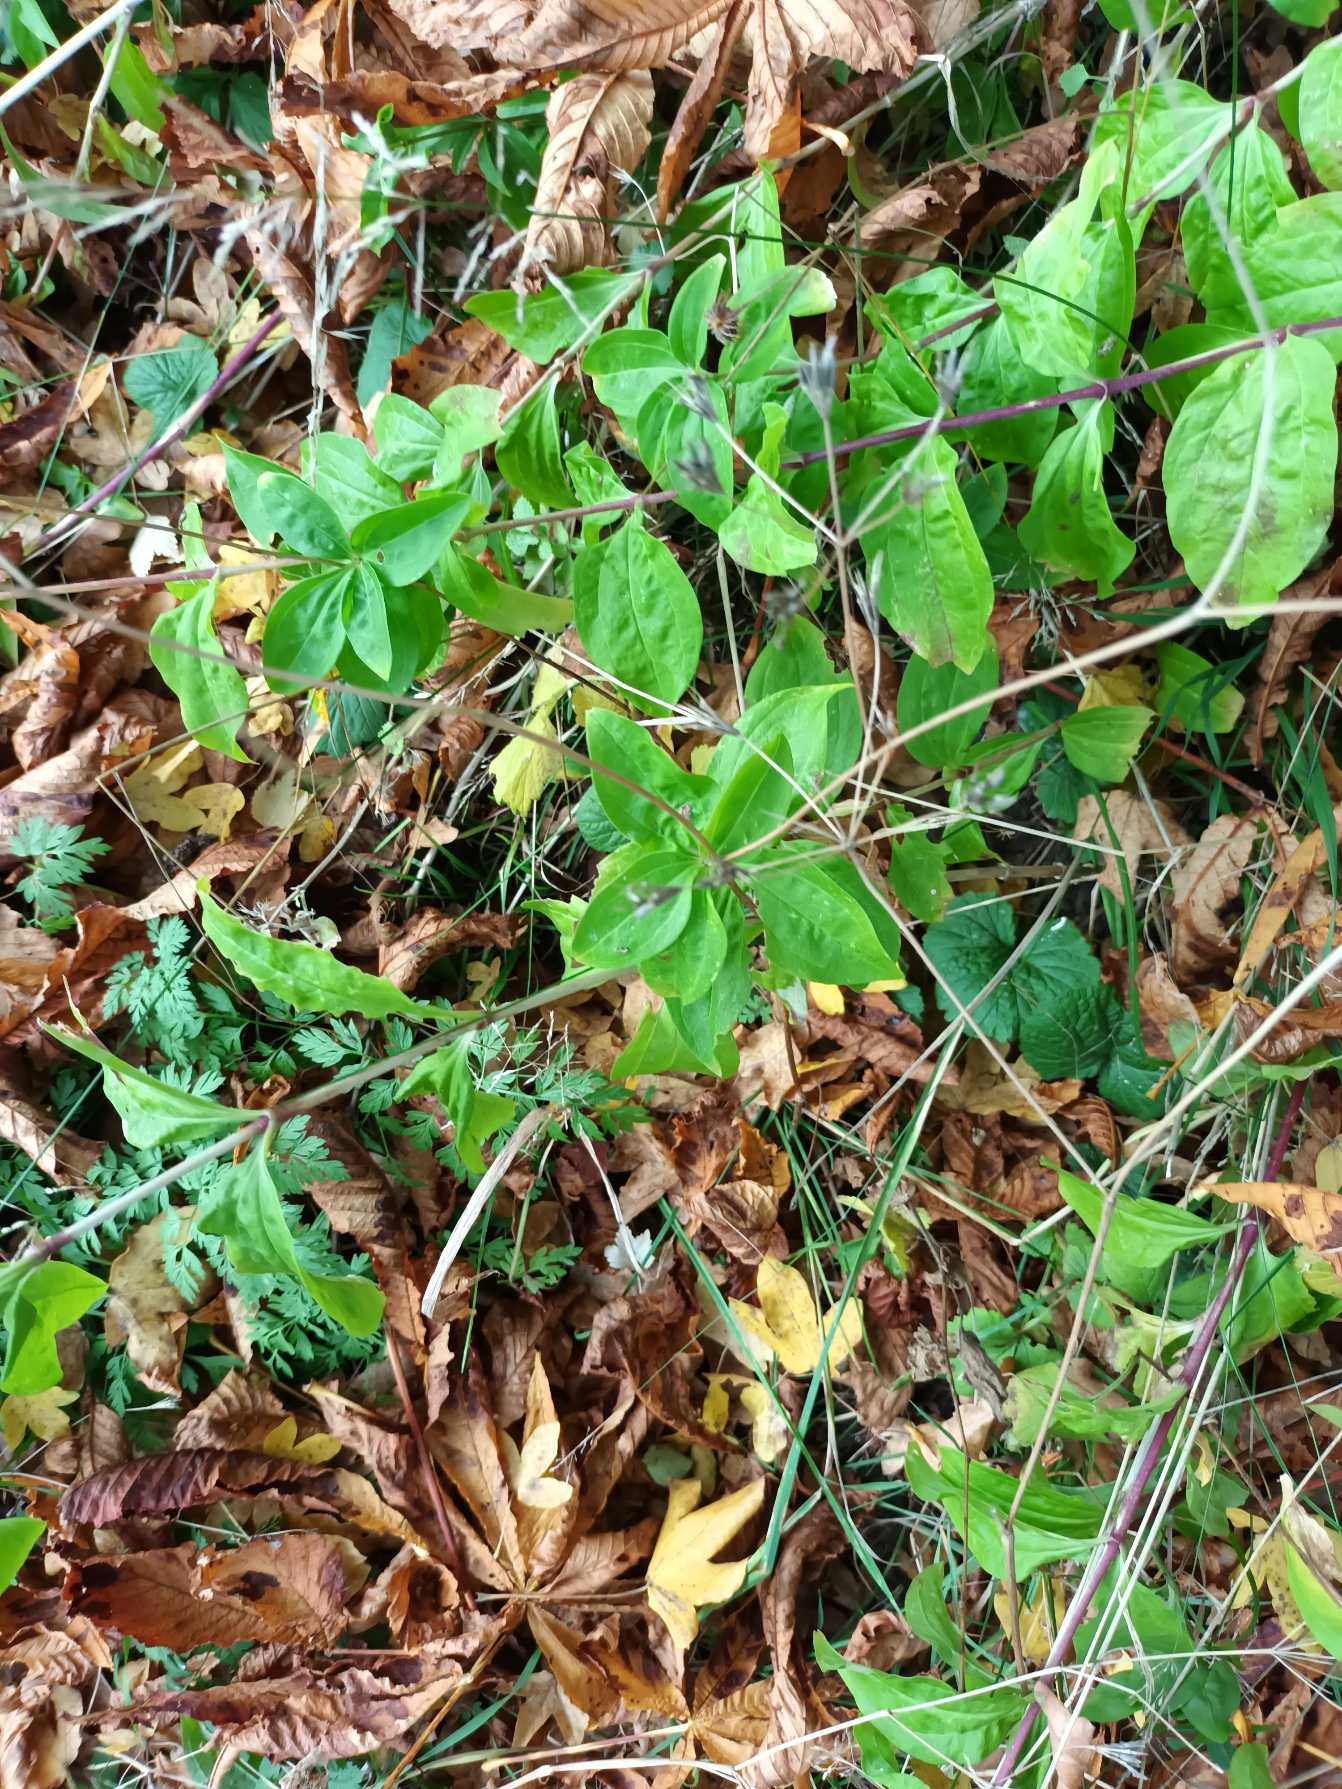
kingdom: Plantae
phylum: Tracheophyta
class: Magnoliopsida
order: Caryophyllales
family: Caryophyllaceae
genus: Saponaria
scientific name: Saponaria officinalis
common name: Sæbeurt
